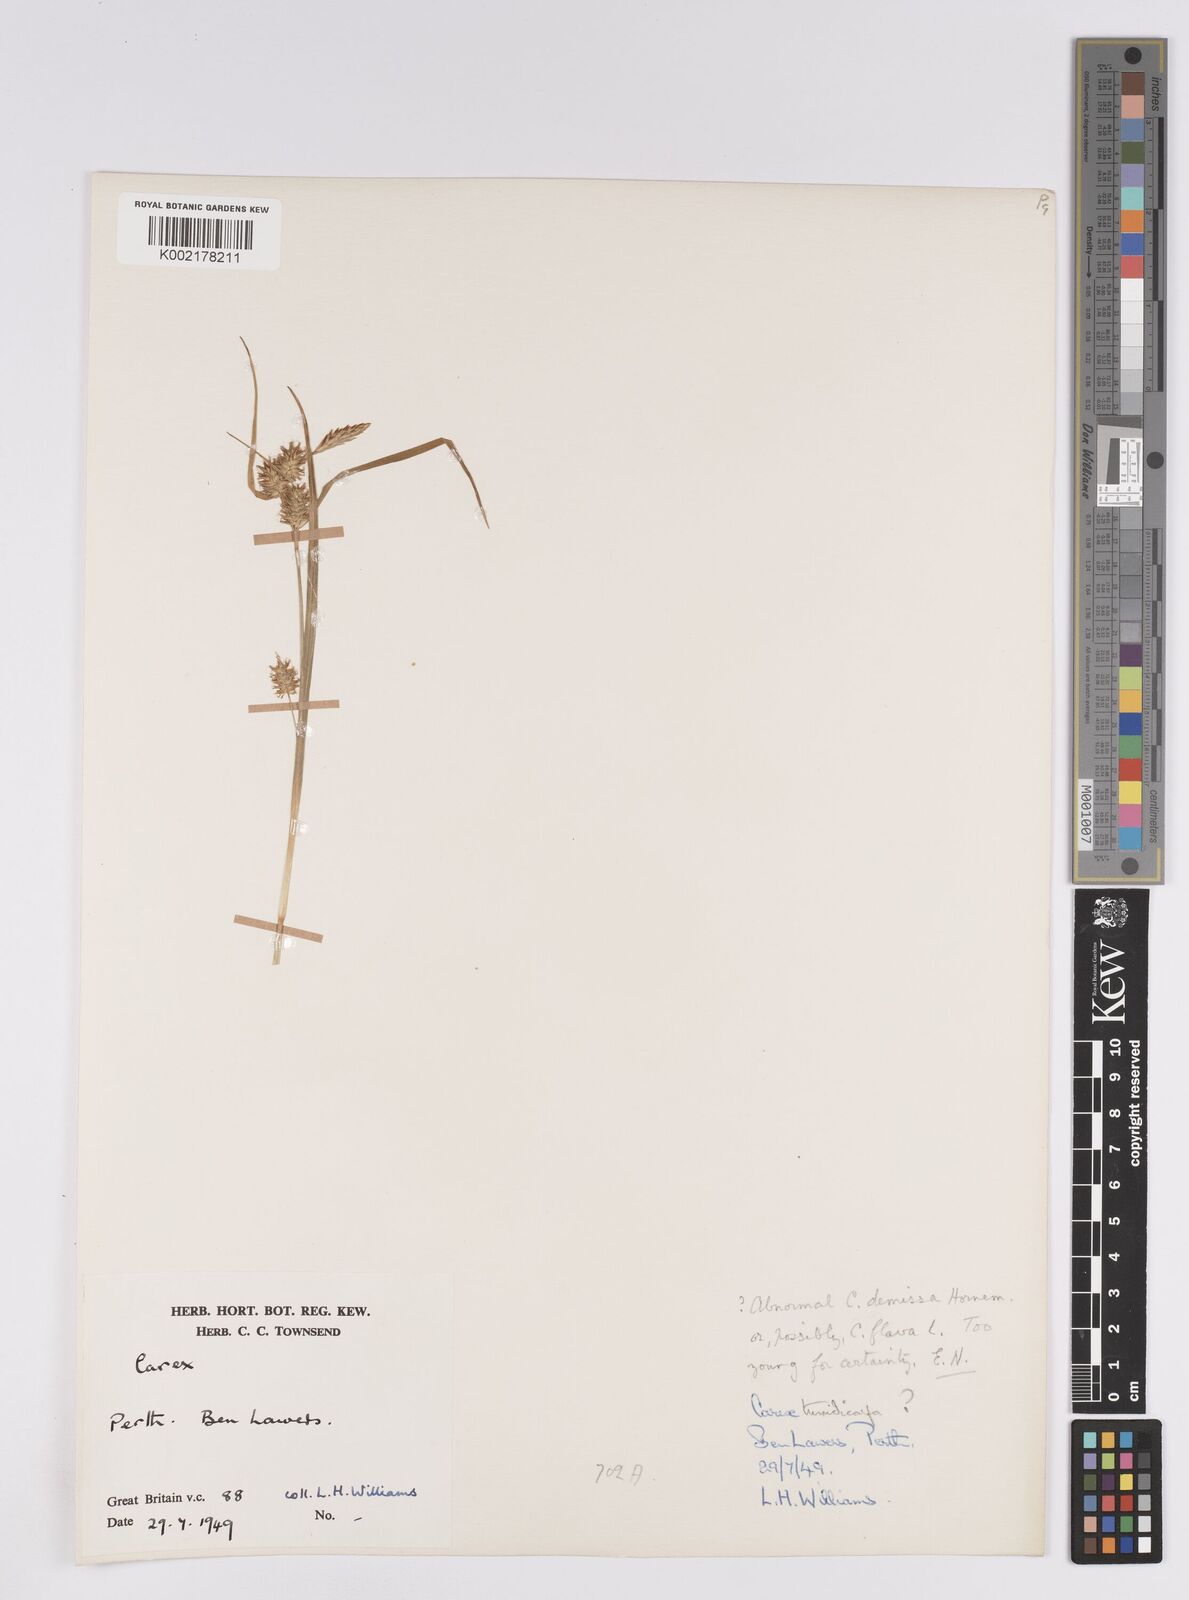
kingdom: Plantae
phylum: Tracheophyta
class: Liliopsida
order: Poales
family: Cyperaceae
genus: Carex
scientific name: Carex demissa
